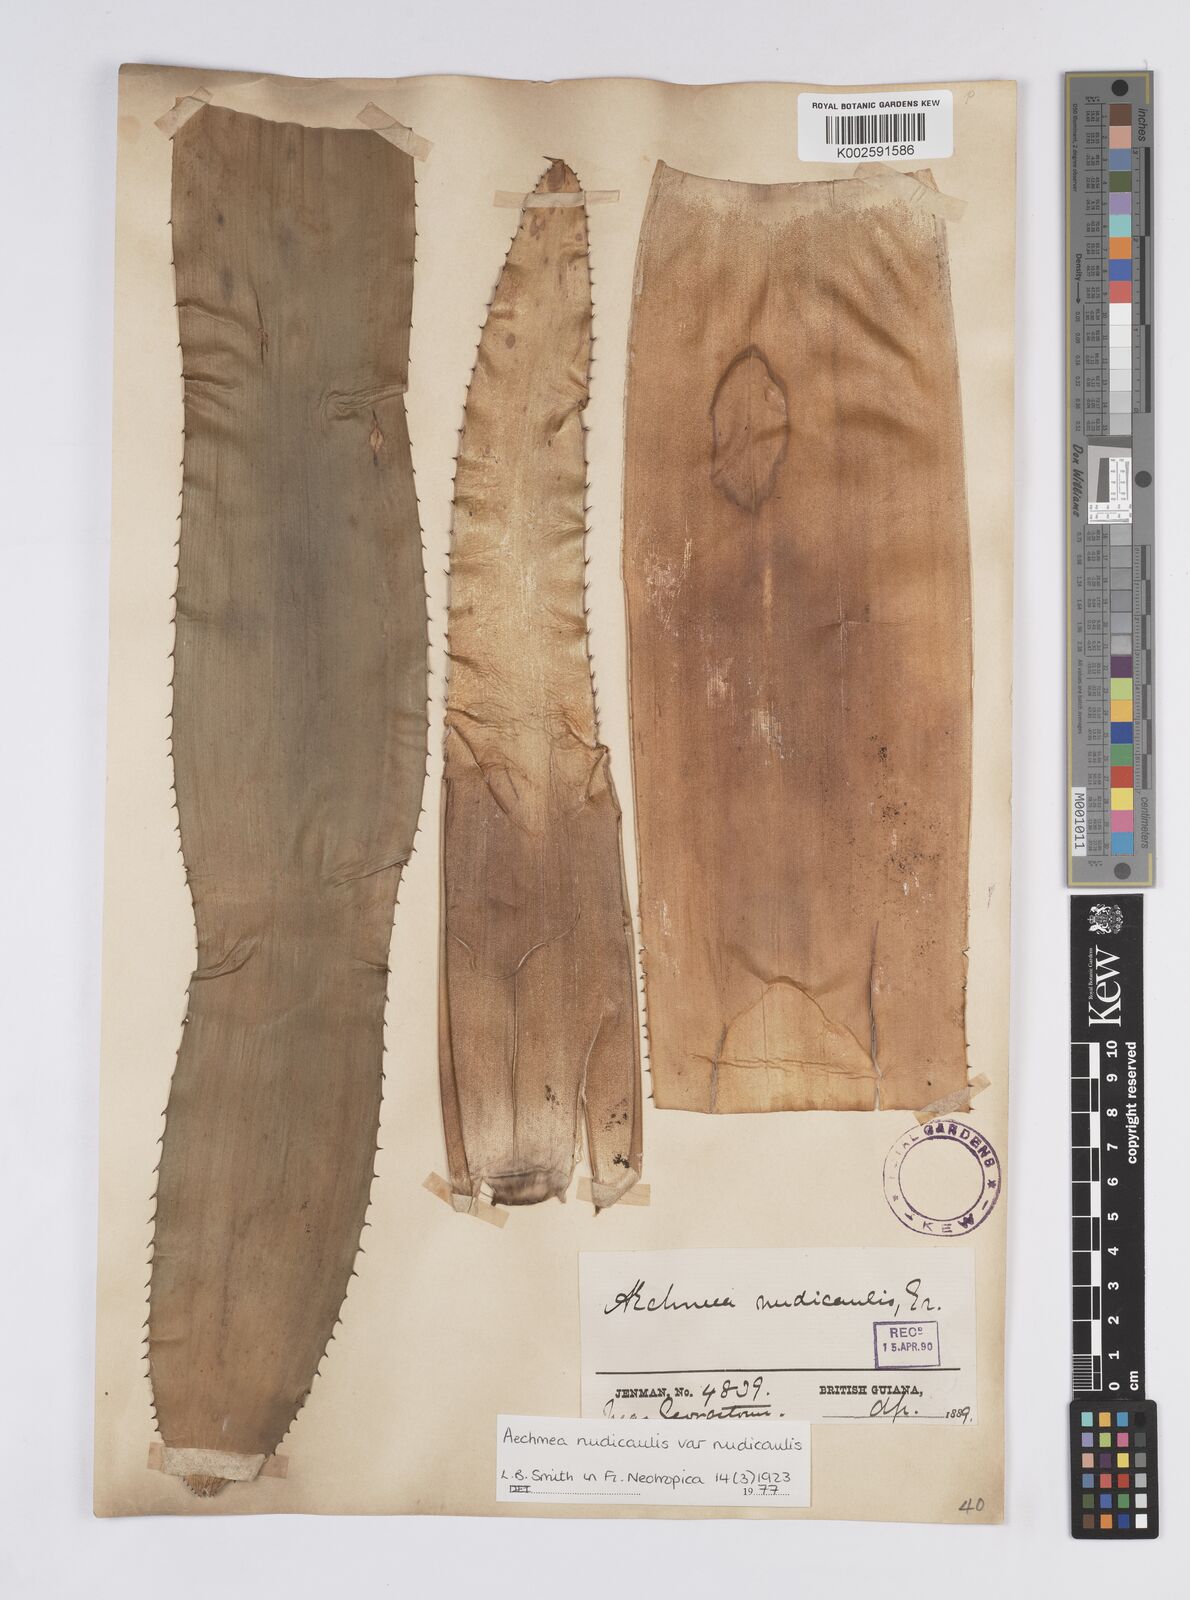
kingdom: Plantae
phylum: Tracheophyta
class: Liliopsida
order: Poales
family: Bromeliaceae
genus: Aechmea
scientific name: Aechmea nudicaulis
